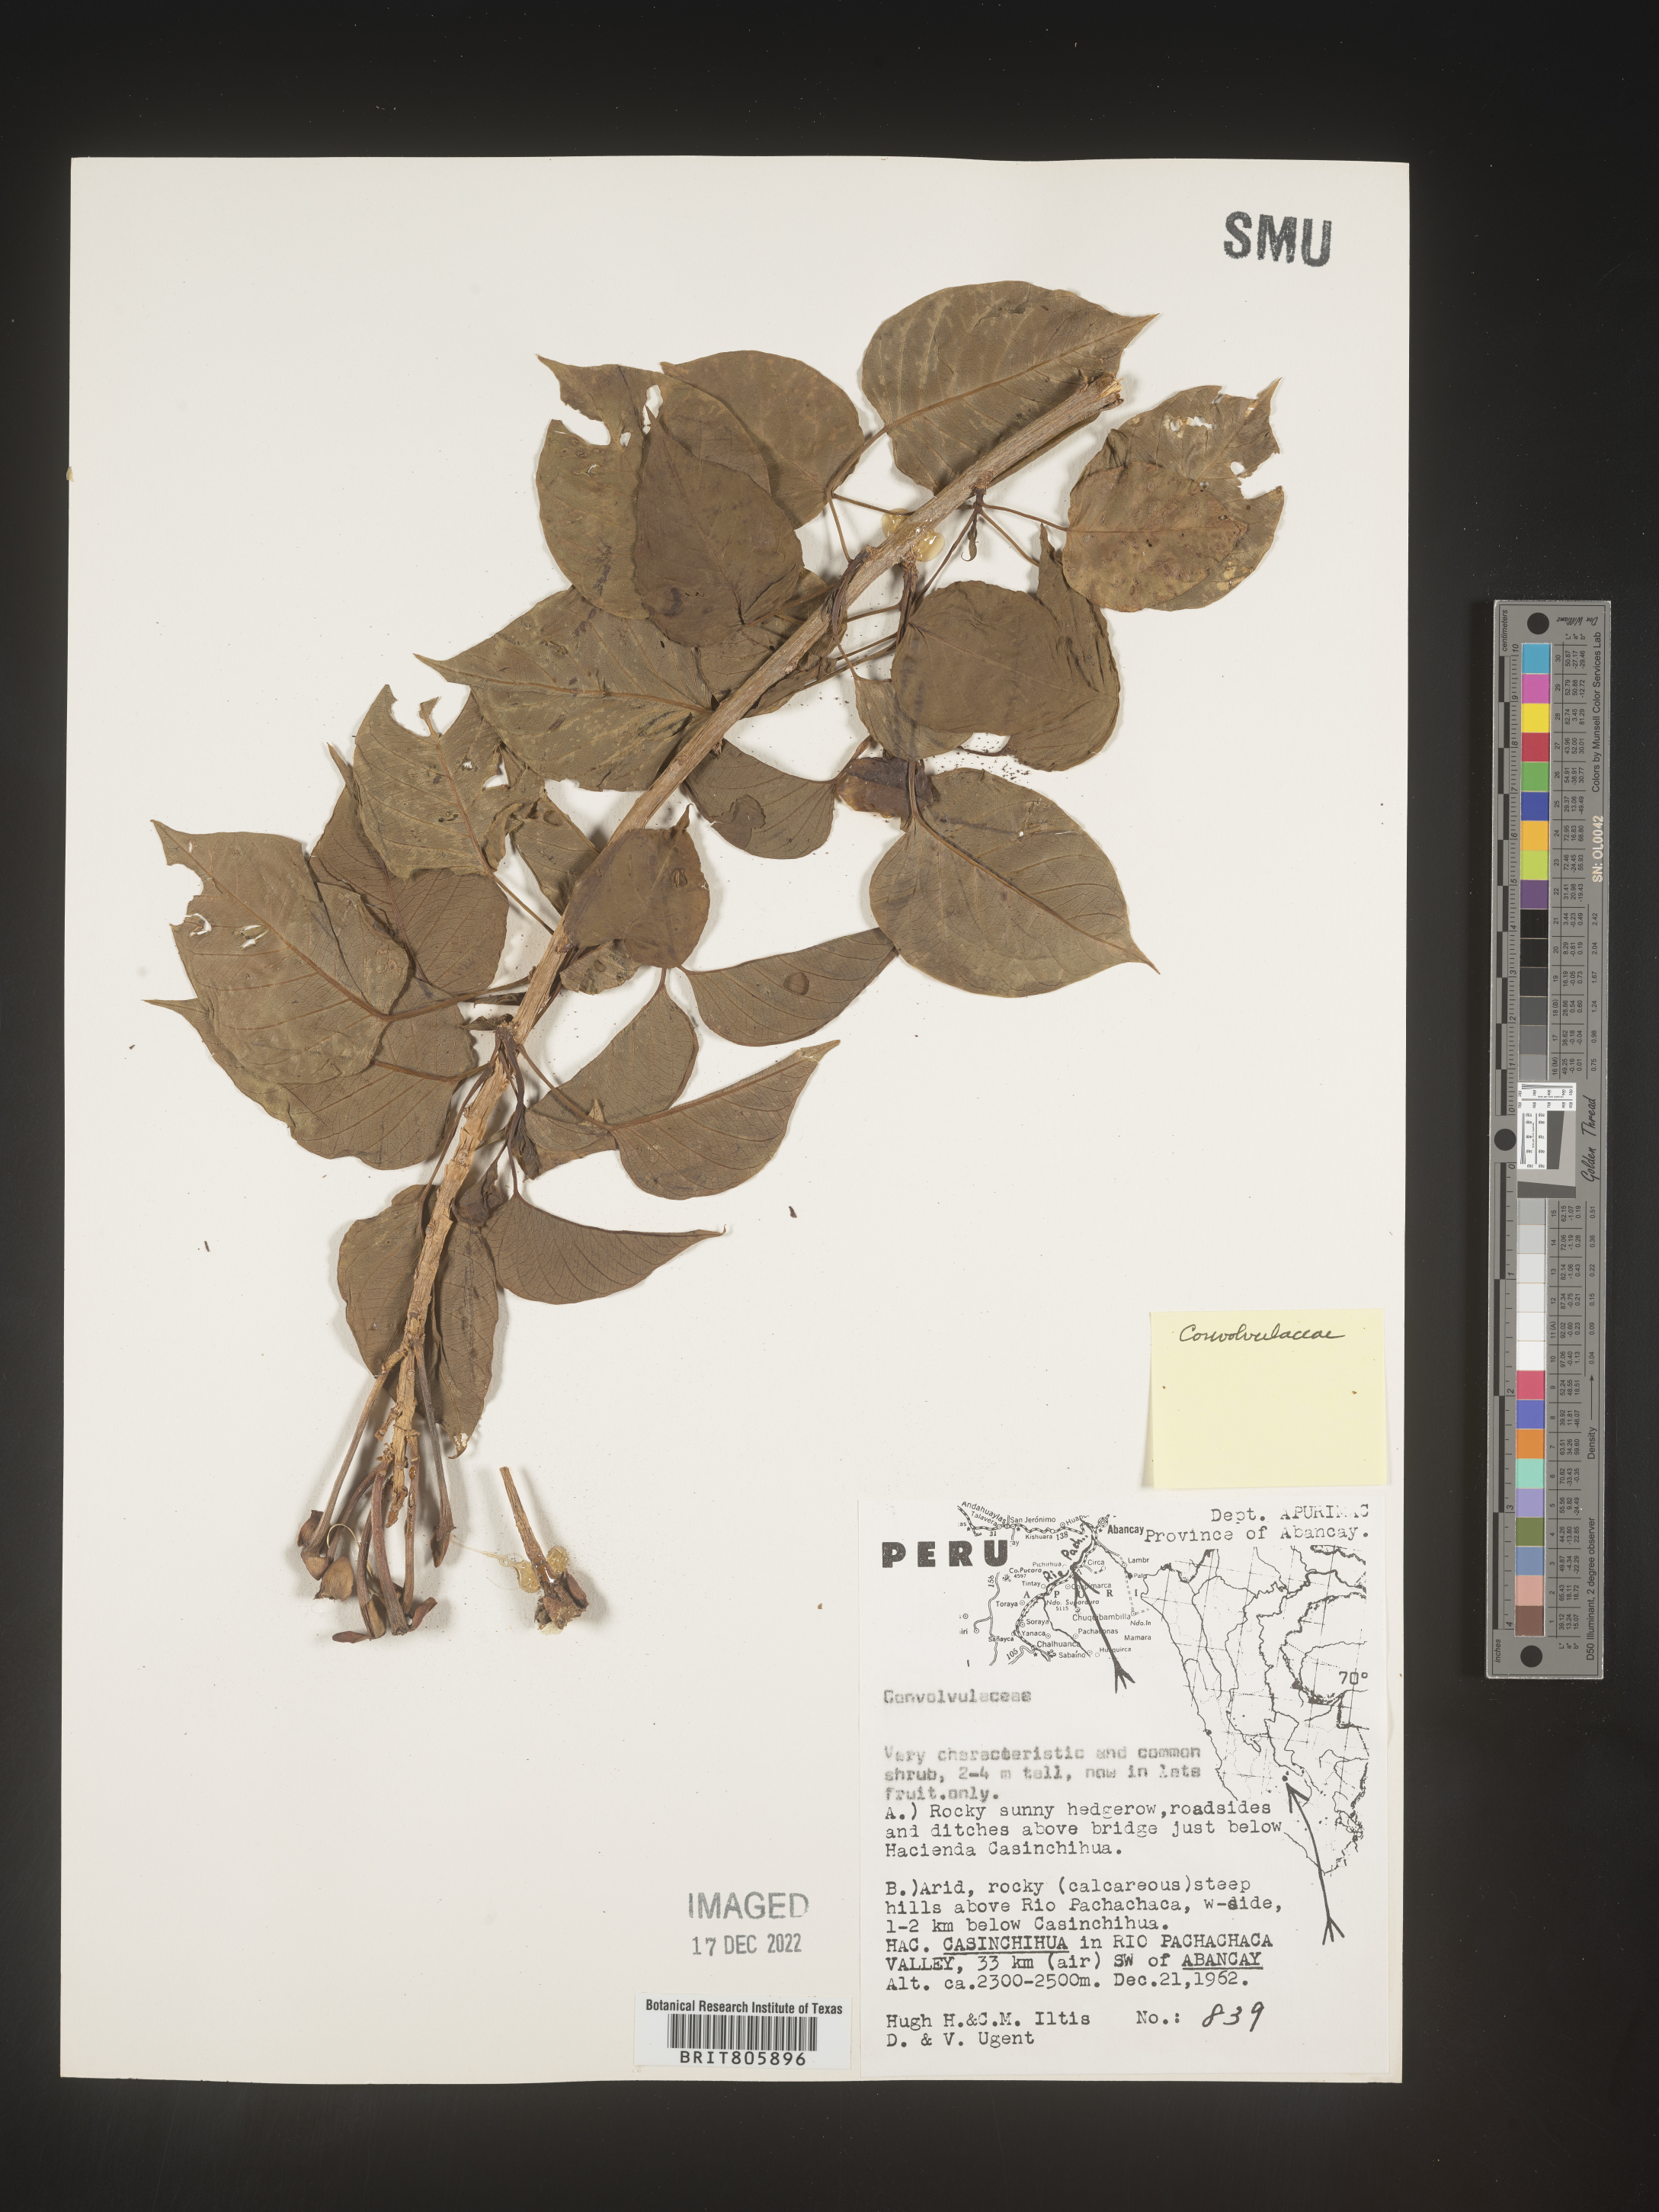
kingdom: Animalia
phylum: Mollusca
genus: Turbina
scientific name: Turbina
